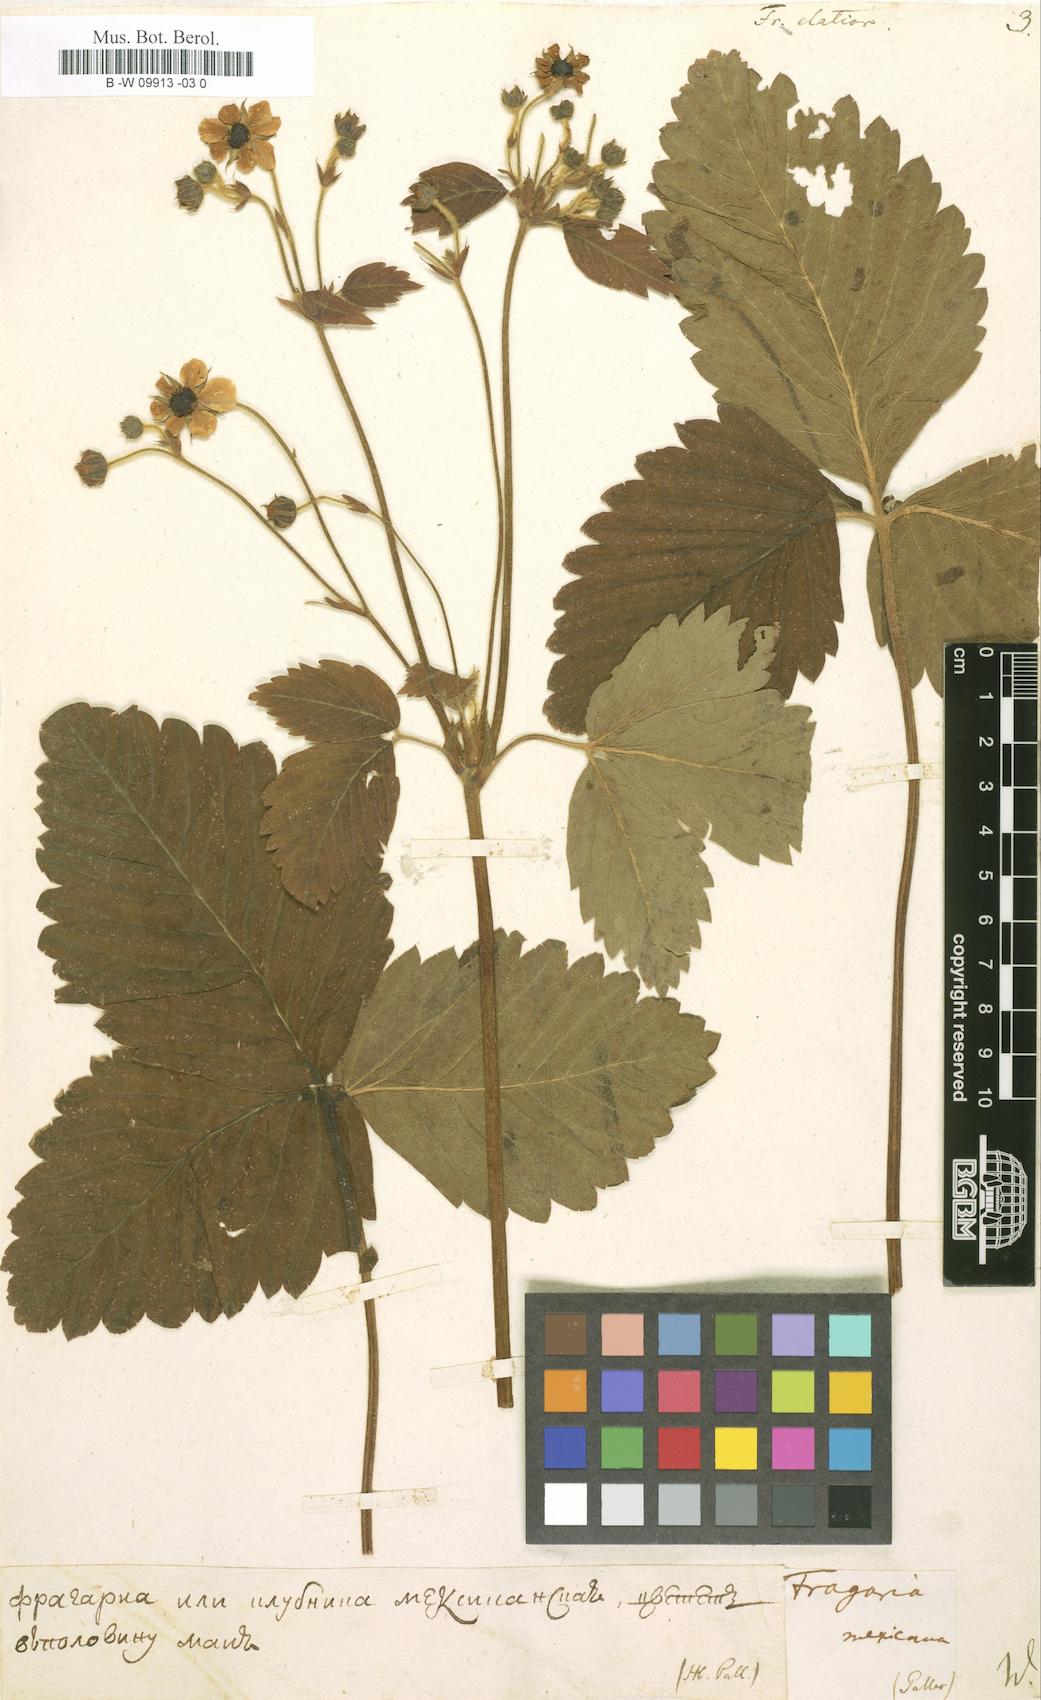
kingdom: Plantae
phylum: Tracheophyta
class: Magnoliopsida
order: Rosales
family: Rosaceae
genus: Fragaria
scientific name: Fragaria
